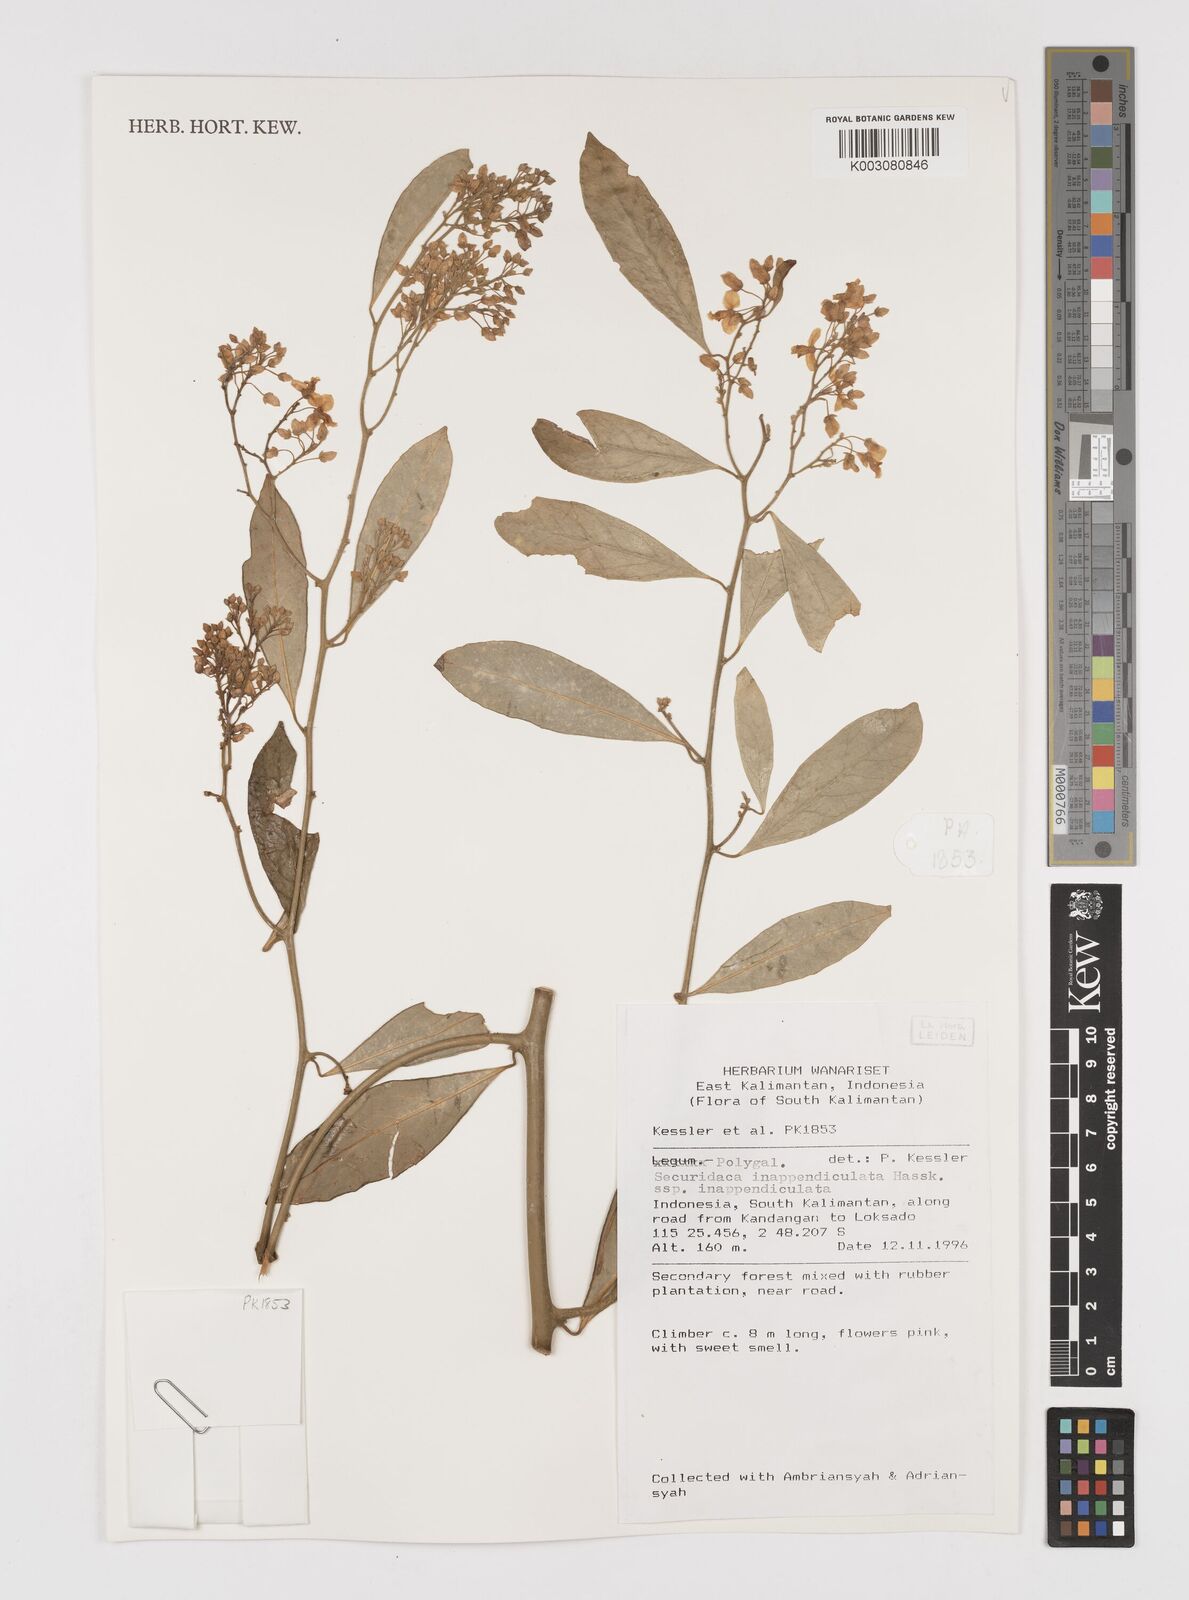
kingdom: Plantae
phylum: Tracheophyta
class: Magnoliopsida
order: Fabales
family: Polygalaceae
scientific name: Polygalaceae
